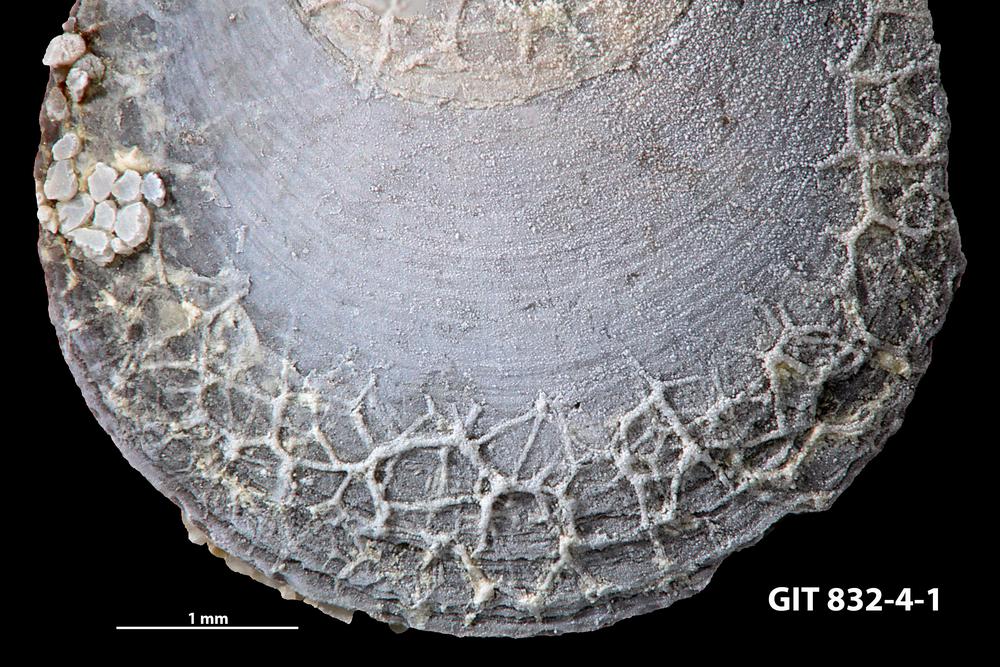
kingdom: Animalia
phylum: Bryozoa
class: Gymnolaemata
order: Ctenostomatida
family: Vinellidae
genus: Marcusodictyon
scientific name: Marcusodictyon Heteronema priscum
